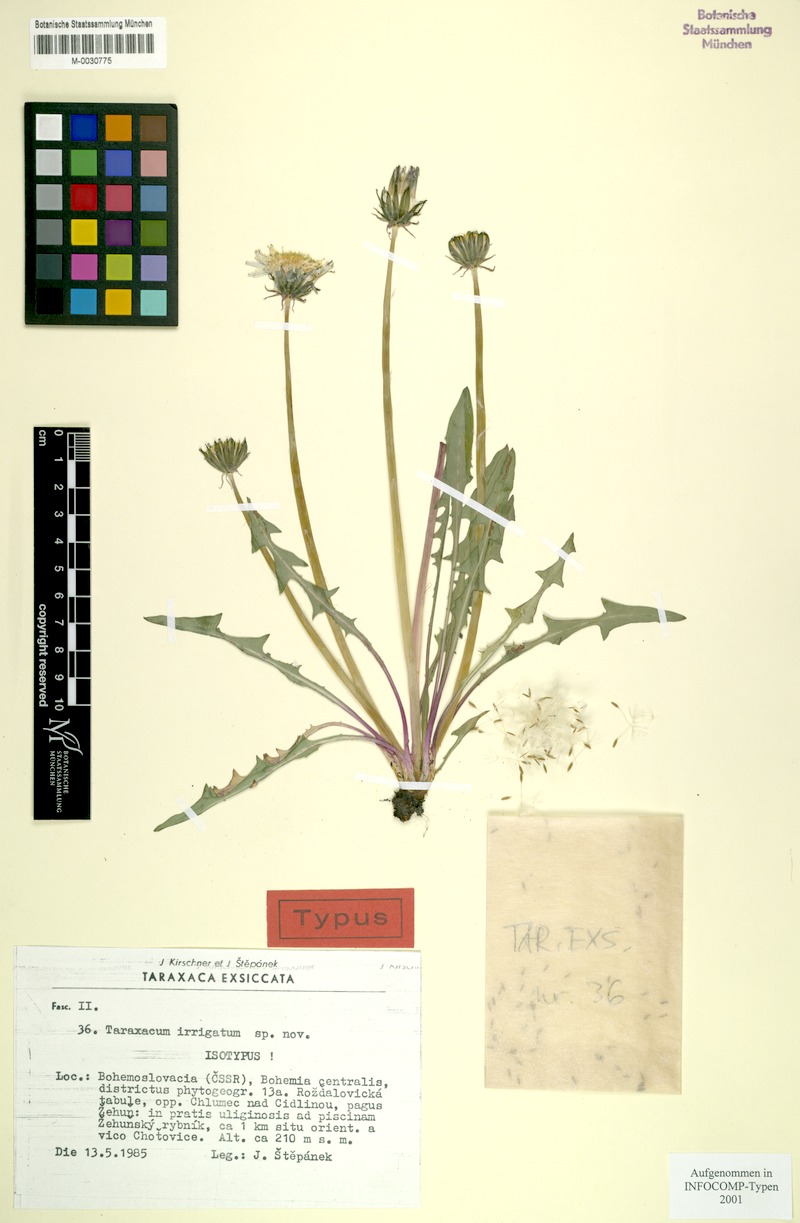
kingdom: Plantae
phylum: Tracheophyta
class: Magnoliopsida
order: Asterales
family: Asteraceae
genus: Taraxacum
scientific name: Taraxacum pseudopalustre
